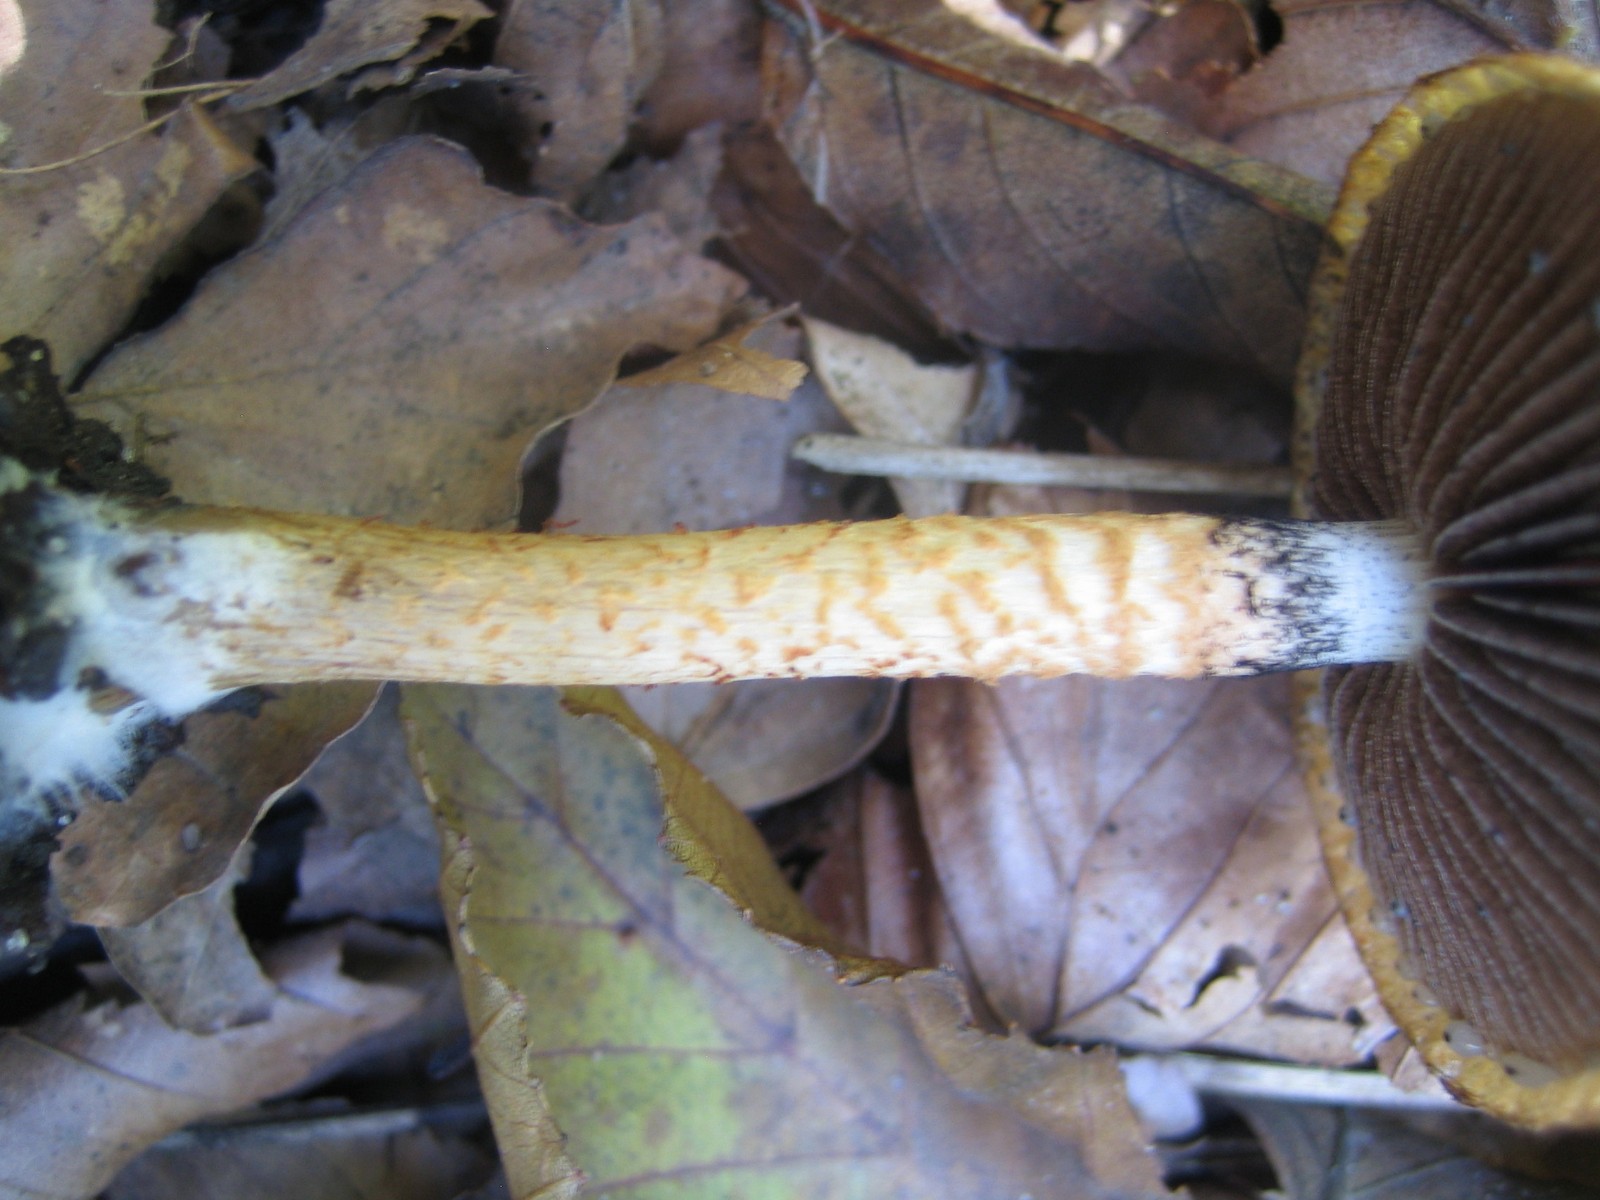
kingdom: Fungi
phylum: Basidiomycota
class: Agaricomycetes
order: Agaricales
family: Psathyrellaceae
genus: Lacrymaria
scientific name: Lacrymaria pyrotricha
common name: ildhåret mørkhat
